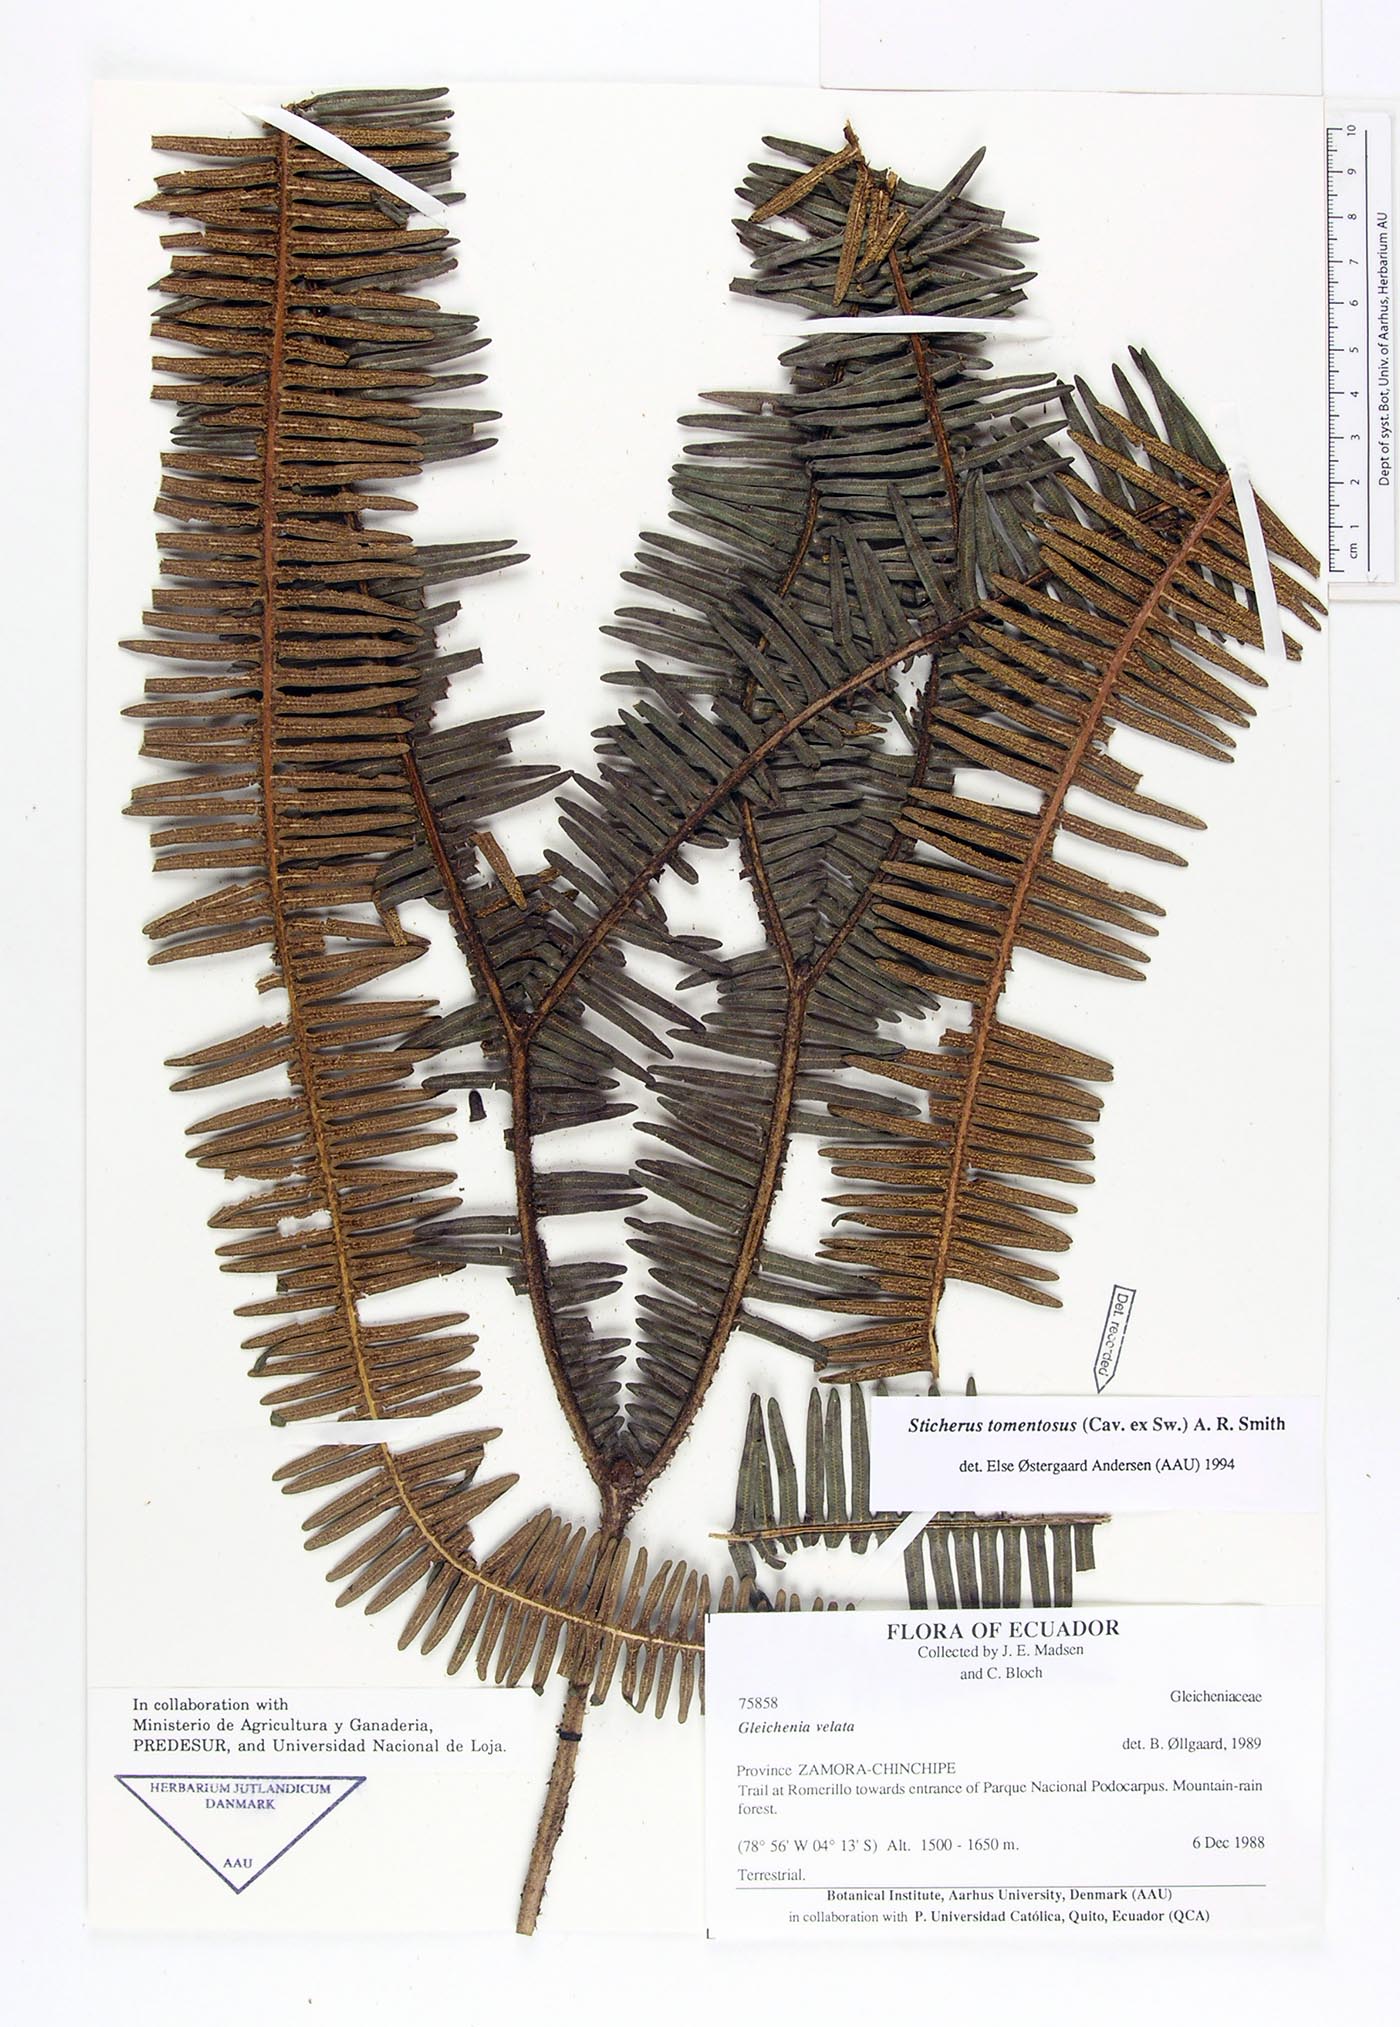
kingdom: Plantae
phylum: Tracheophyta
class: Polypodiopsida
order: Gleicheniales
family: Gleicheniaceae
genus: Sticherus
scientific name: Sticherus tomentosus
